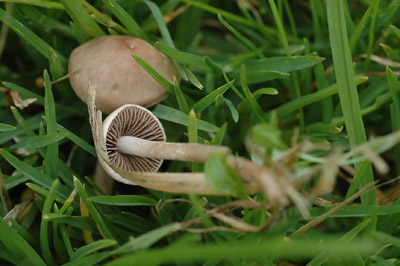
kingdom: Fungi
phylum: Basidiomycota
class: Agaricomycetes
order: Agaricales
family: Bolbitiaceae
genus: Panaeolina
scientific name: Panaeolina foenisecii
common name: høslætsvamp
